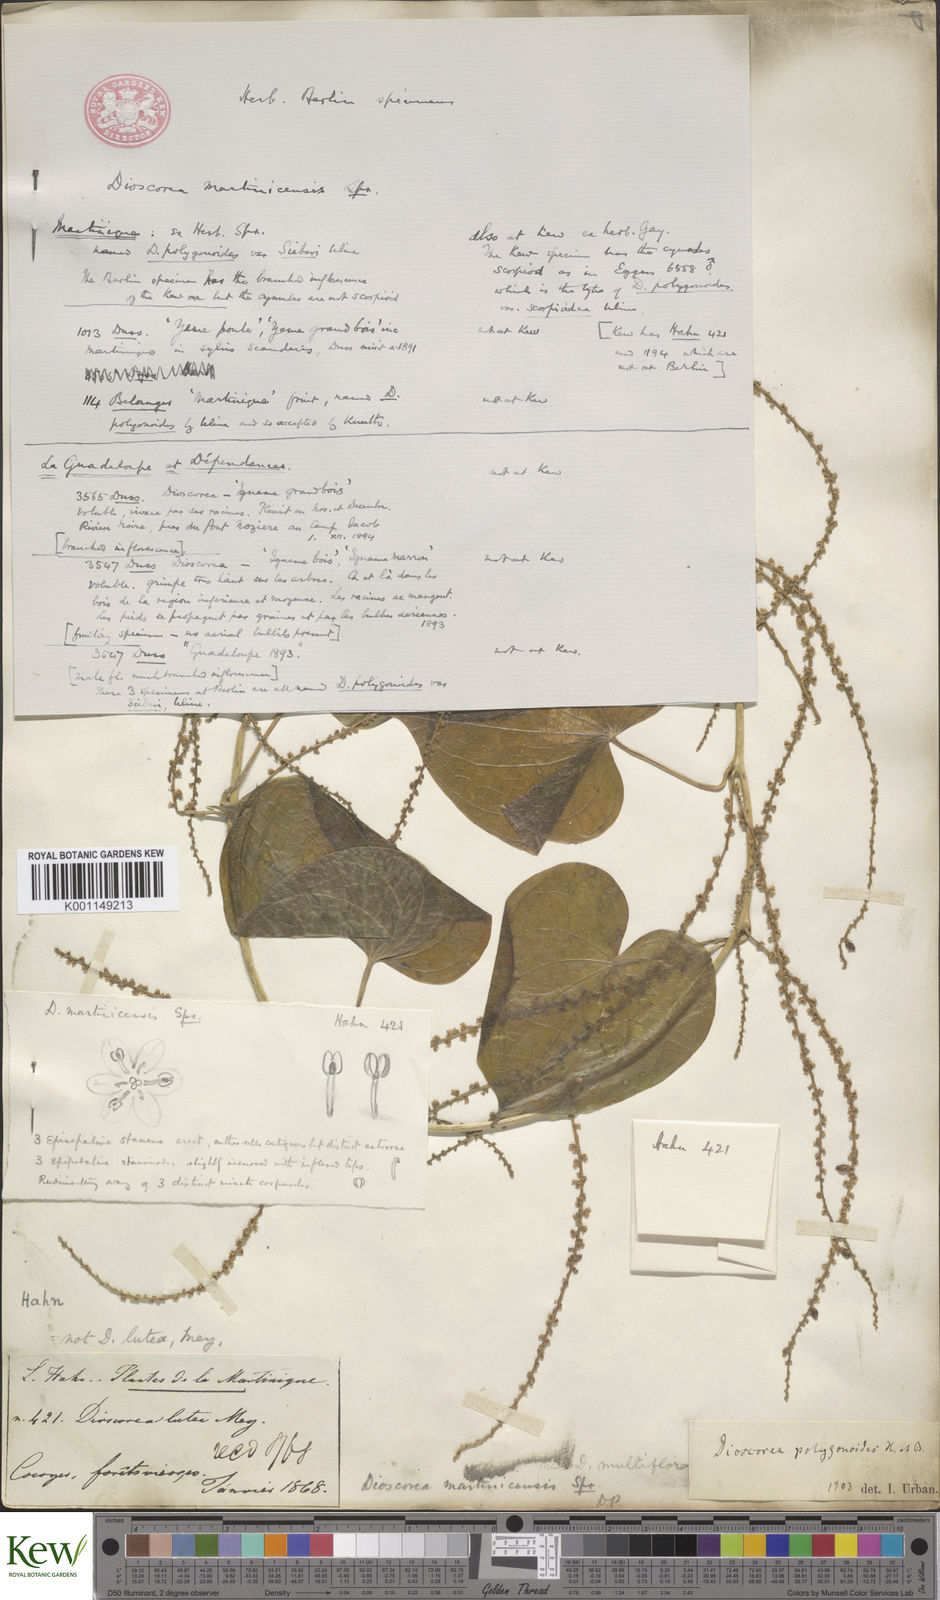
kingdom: Plantae
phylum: Tracheophyta
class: Liliopsida
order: Dioscoreales
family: Dioscoreaceae
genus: Dioscorea
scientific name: Dioscorea polygonoides
